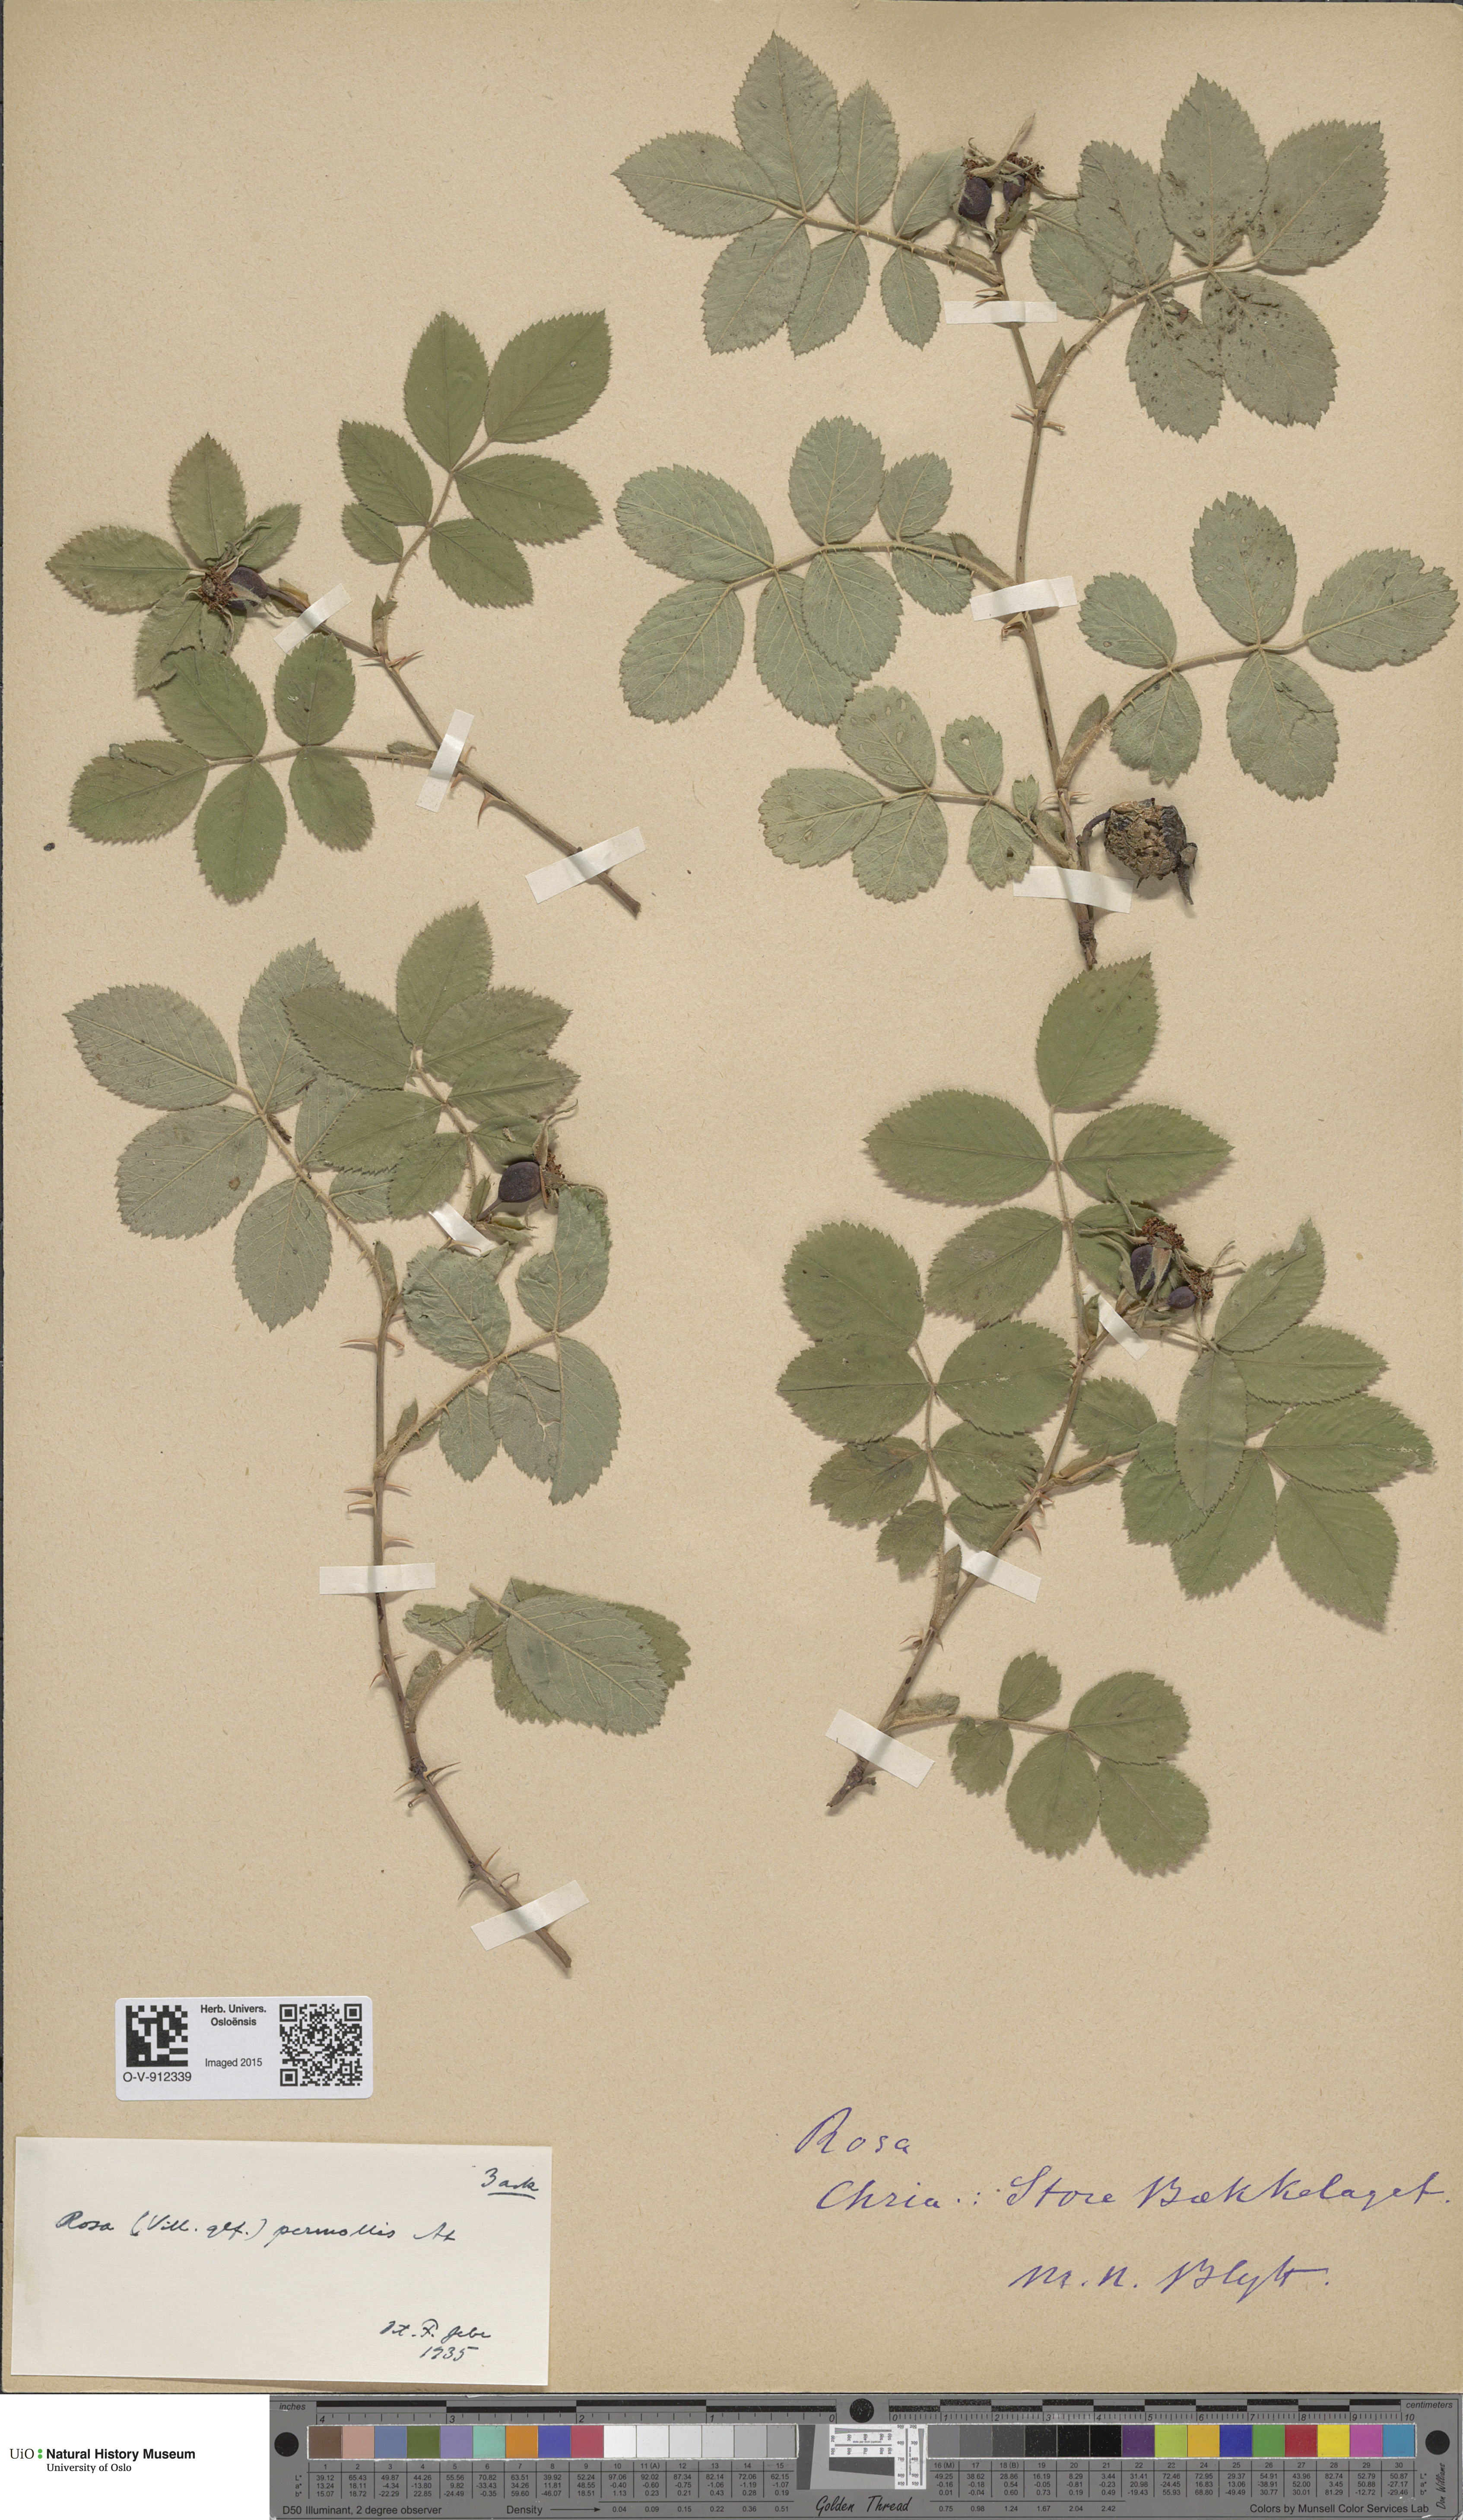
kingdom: Plantae
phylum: Tracheophyta
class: Magnoliopsida
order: Rosales
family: Rosaceae
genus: Rosa
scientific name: Rosa mollis
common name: Rose
